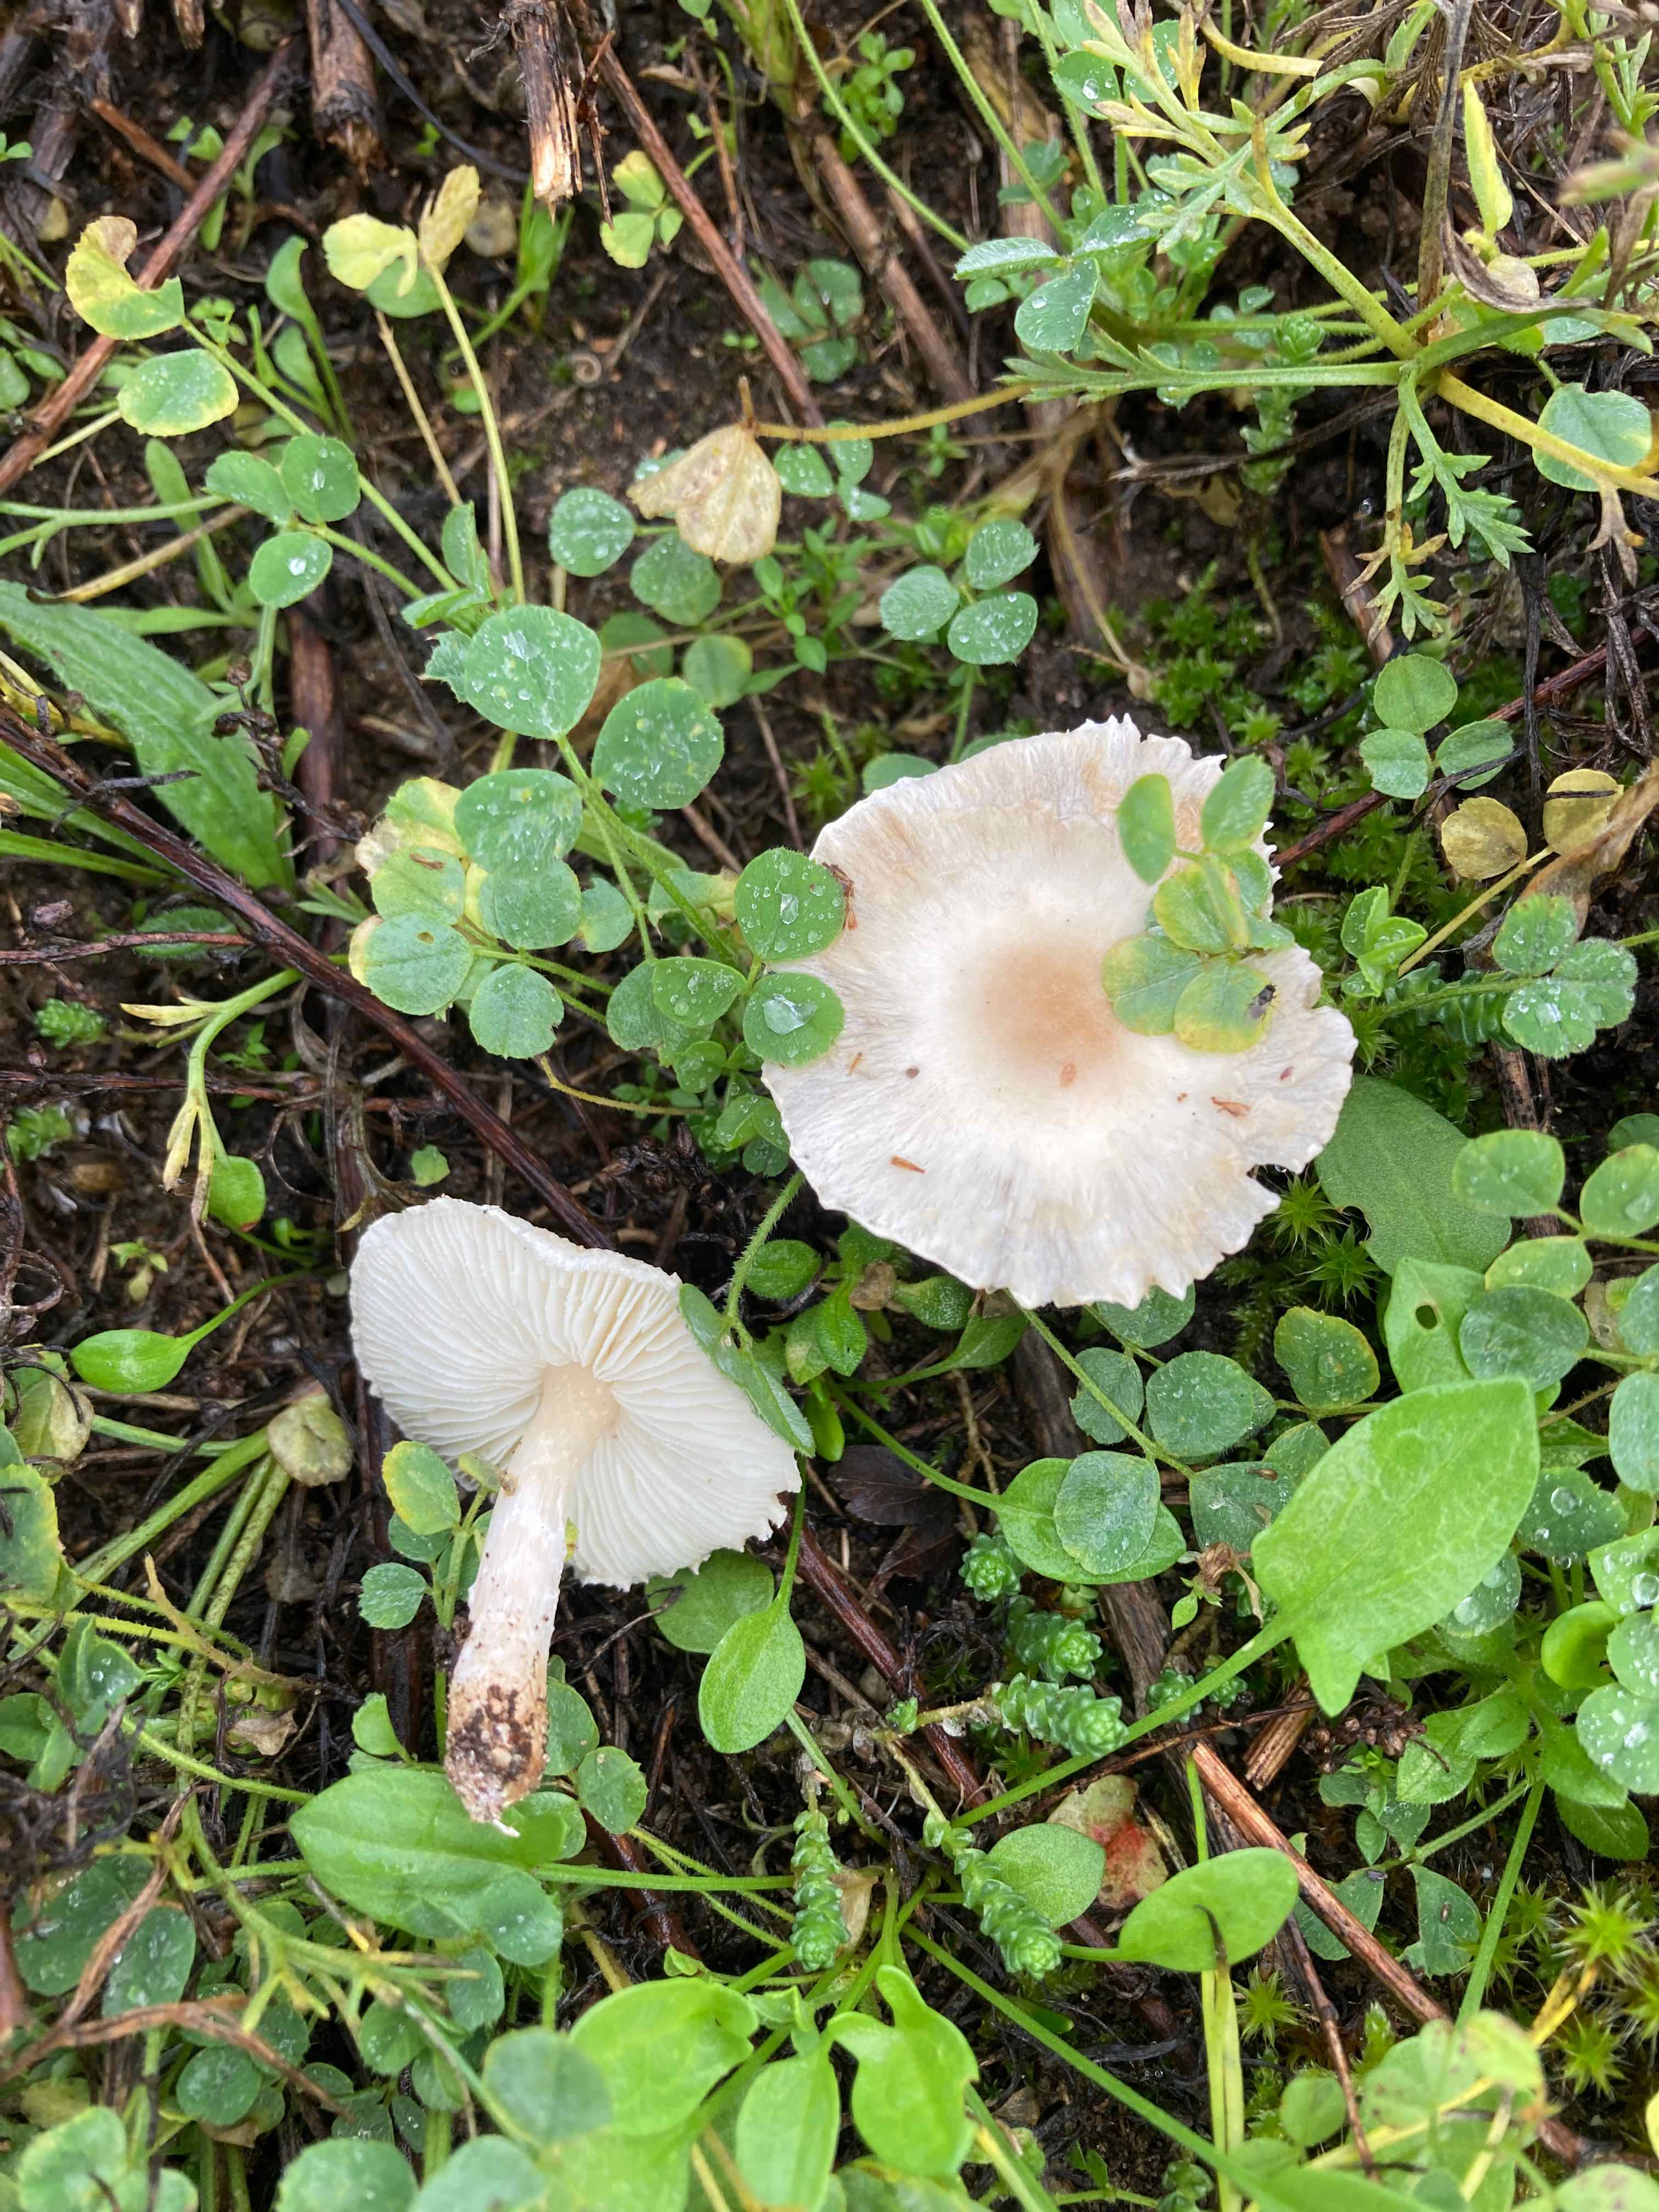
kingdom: Fungi
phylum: Basidiomycota
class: Agaricomycetes
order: Agaricales
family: Agaricaceae
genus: Lepiota
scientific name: Lepiota erminea
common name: hvid parasolhat
